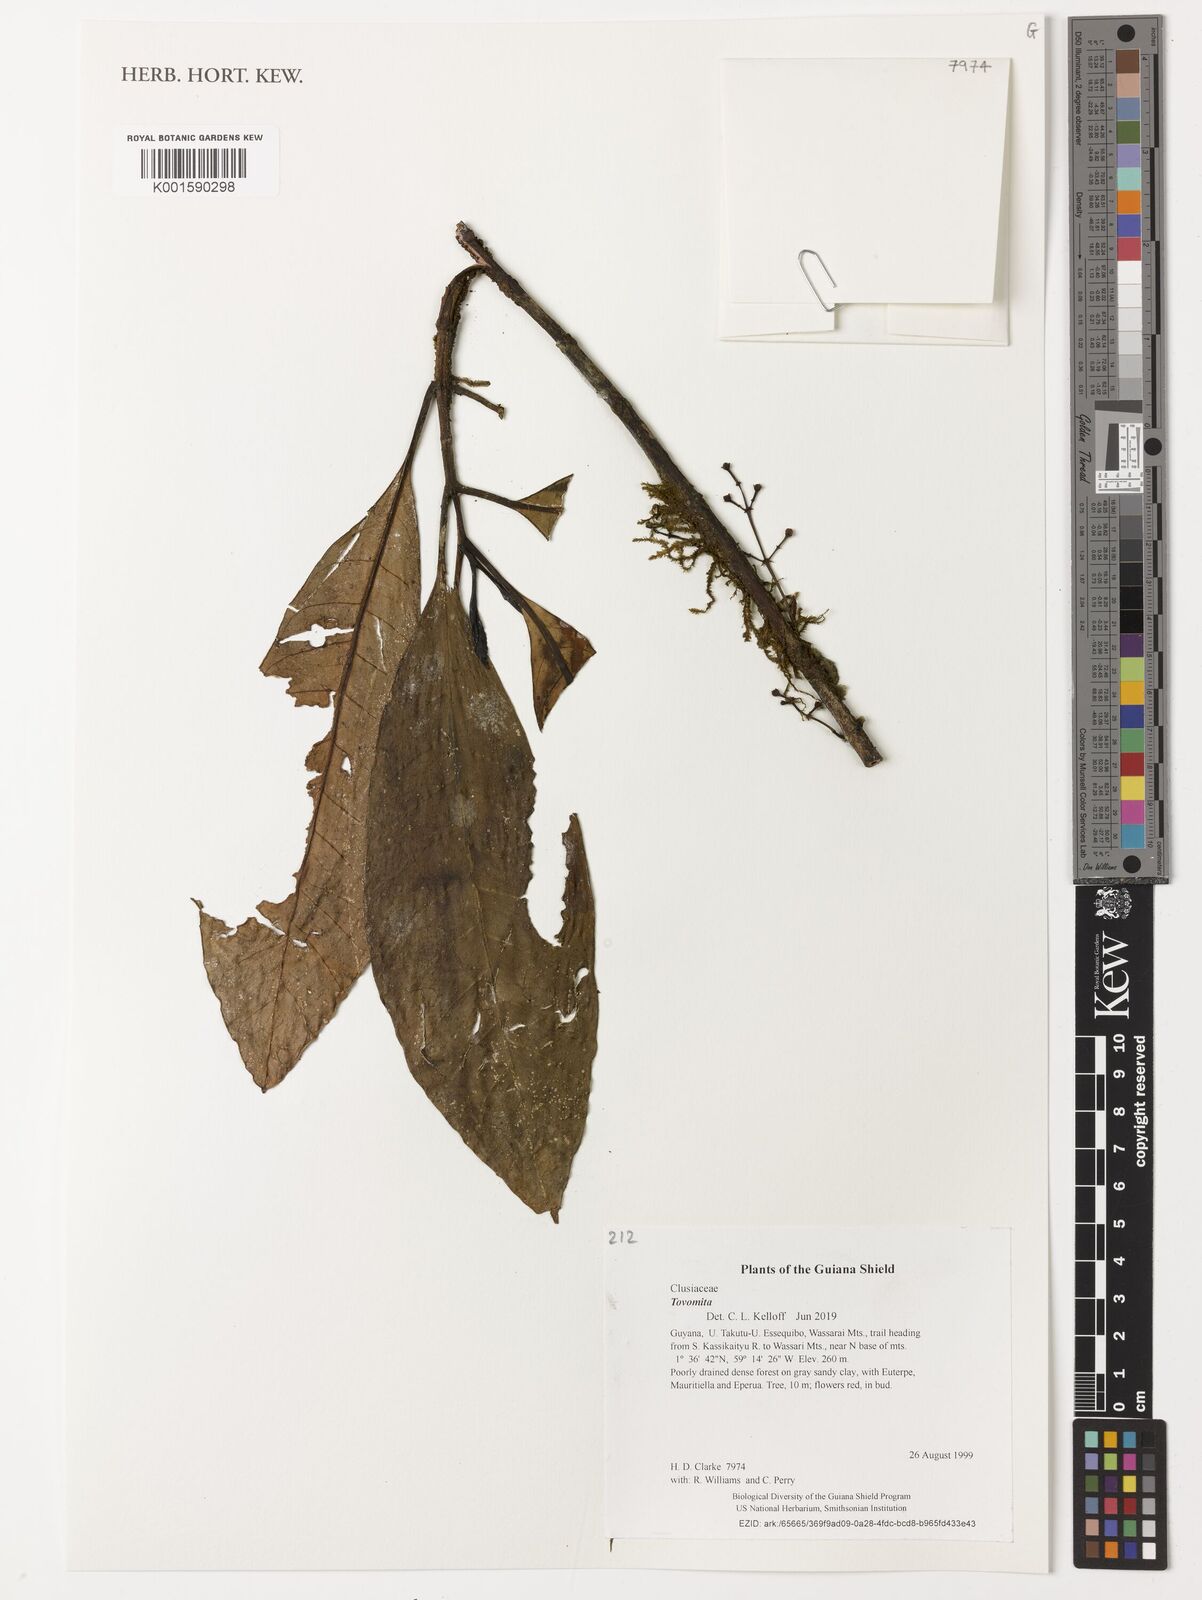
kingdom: Plantae
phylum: Tracheophyta
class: Magnoliopsida
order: Malpighiales
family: Clusiaceae
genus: Tovomita
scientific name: Tovomita
